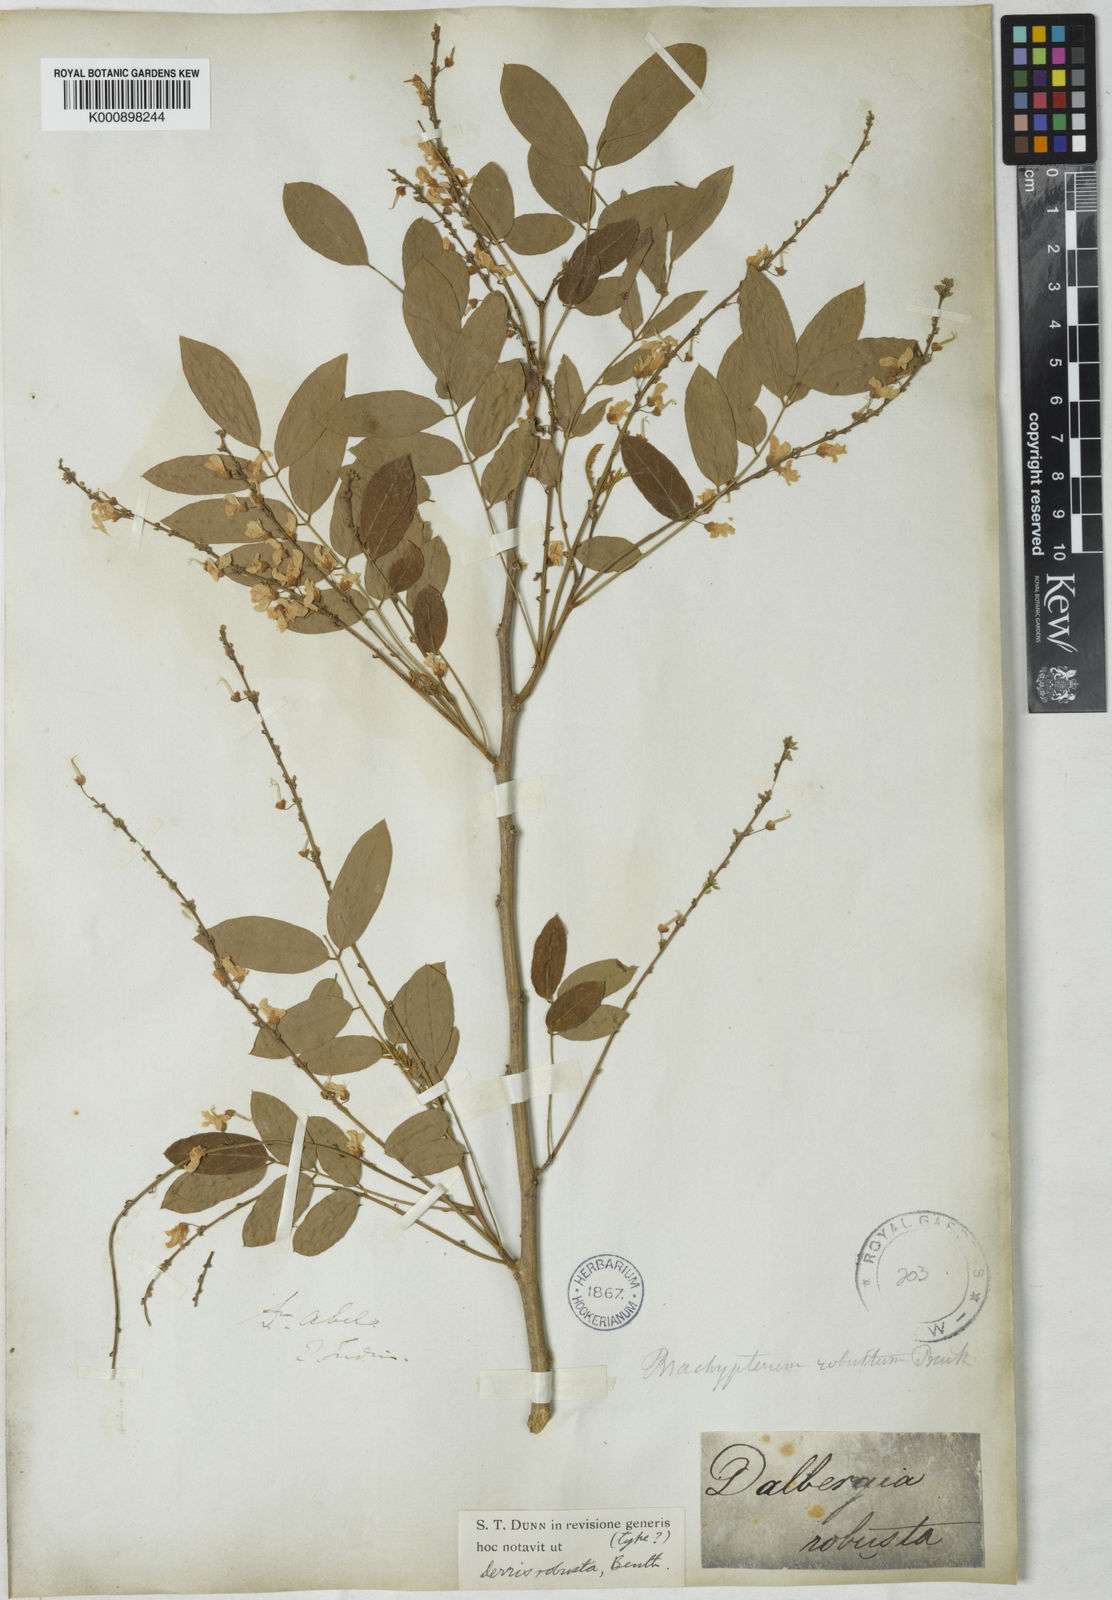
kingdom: Plantae
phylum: Tracheophyta
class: Magnoliopsida
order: Fabales
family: Fabaceae
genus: Brachypterum
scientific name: Brachypterum robustum
